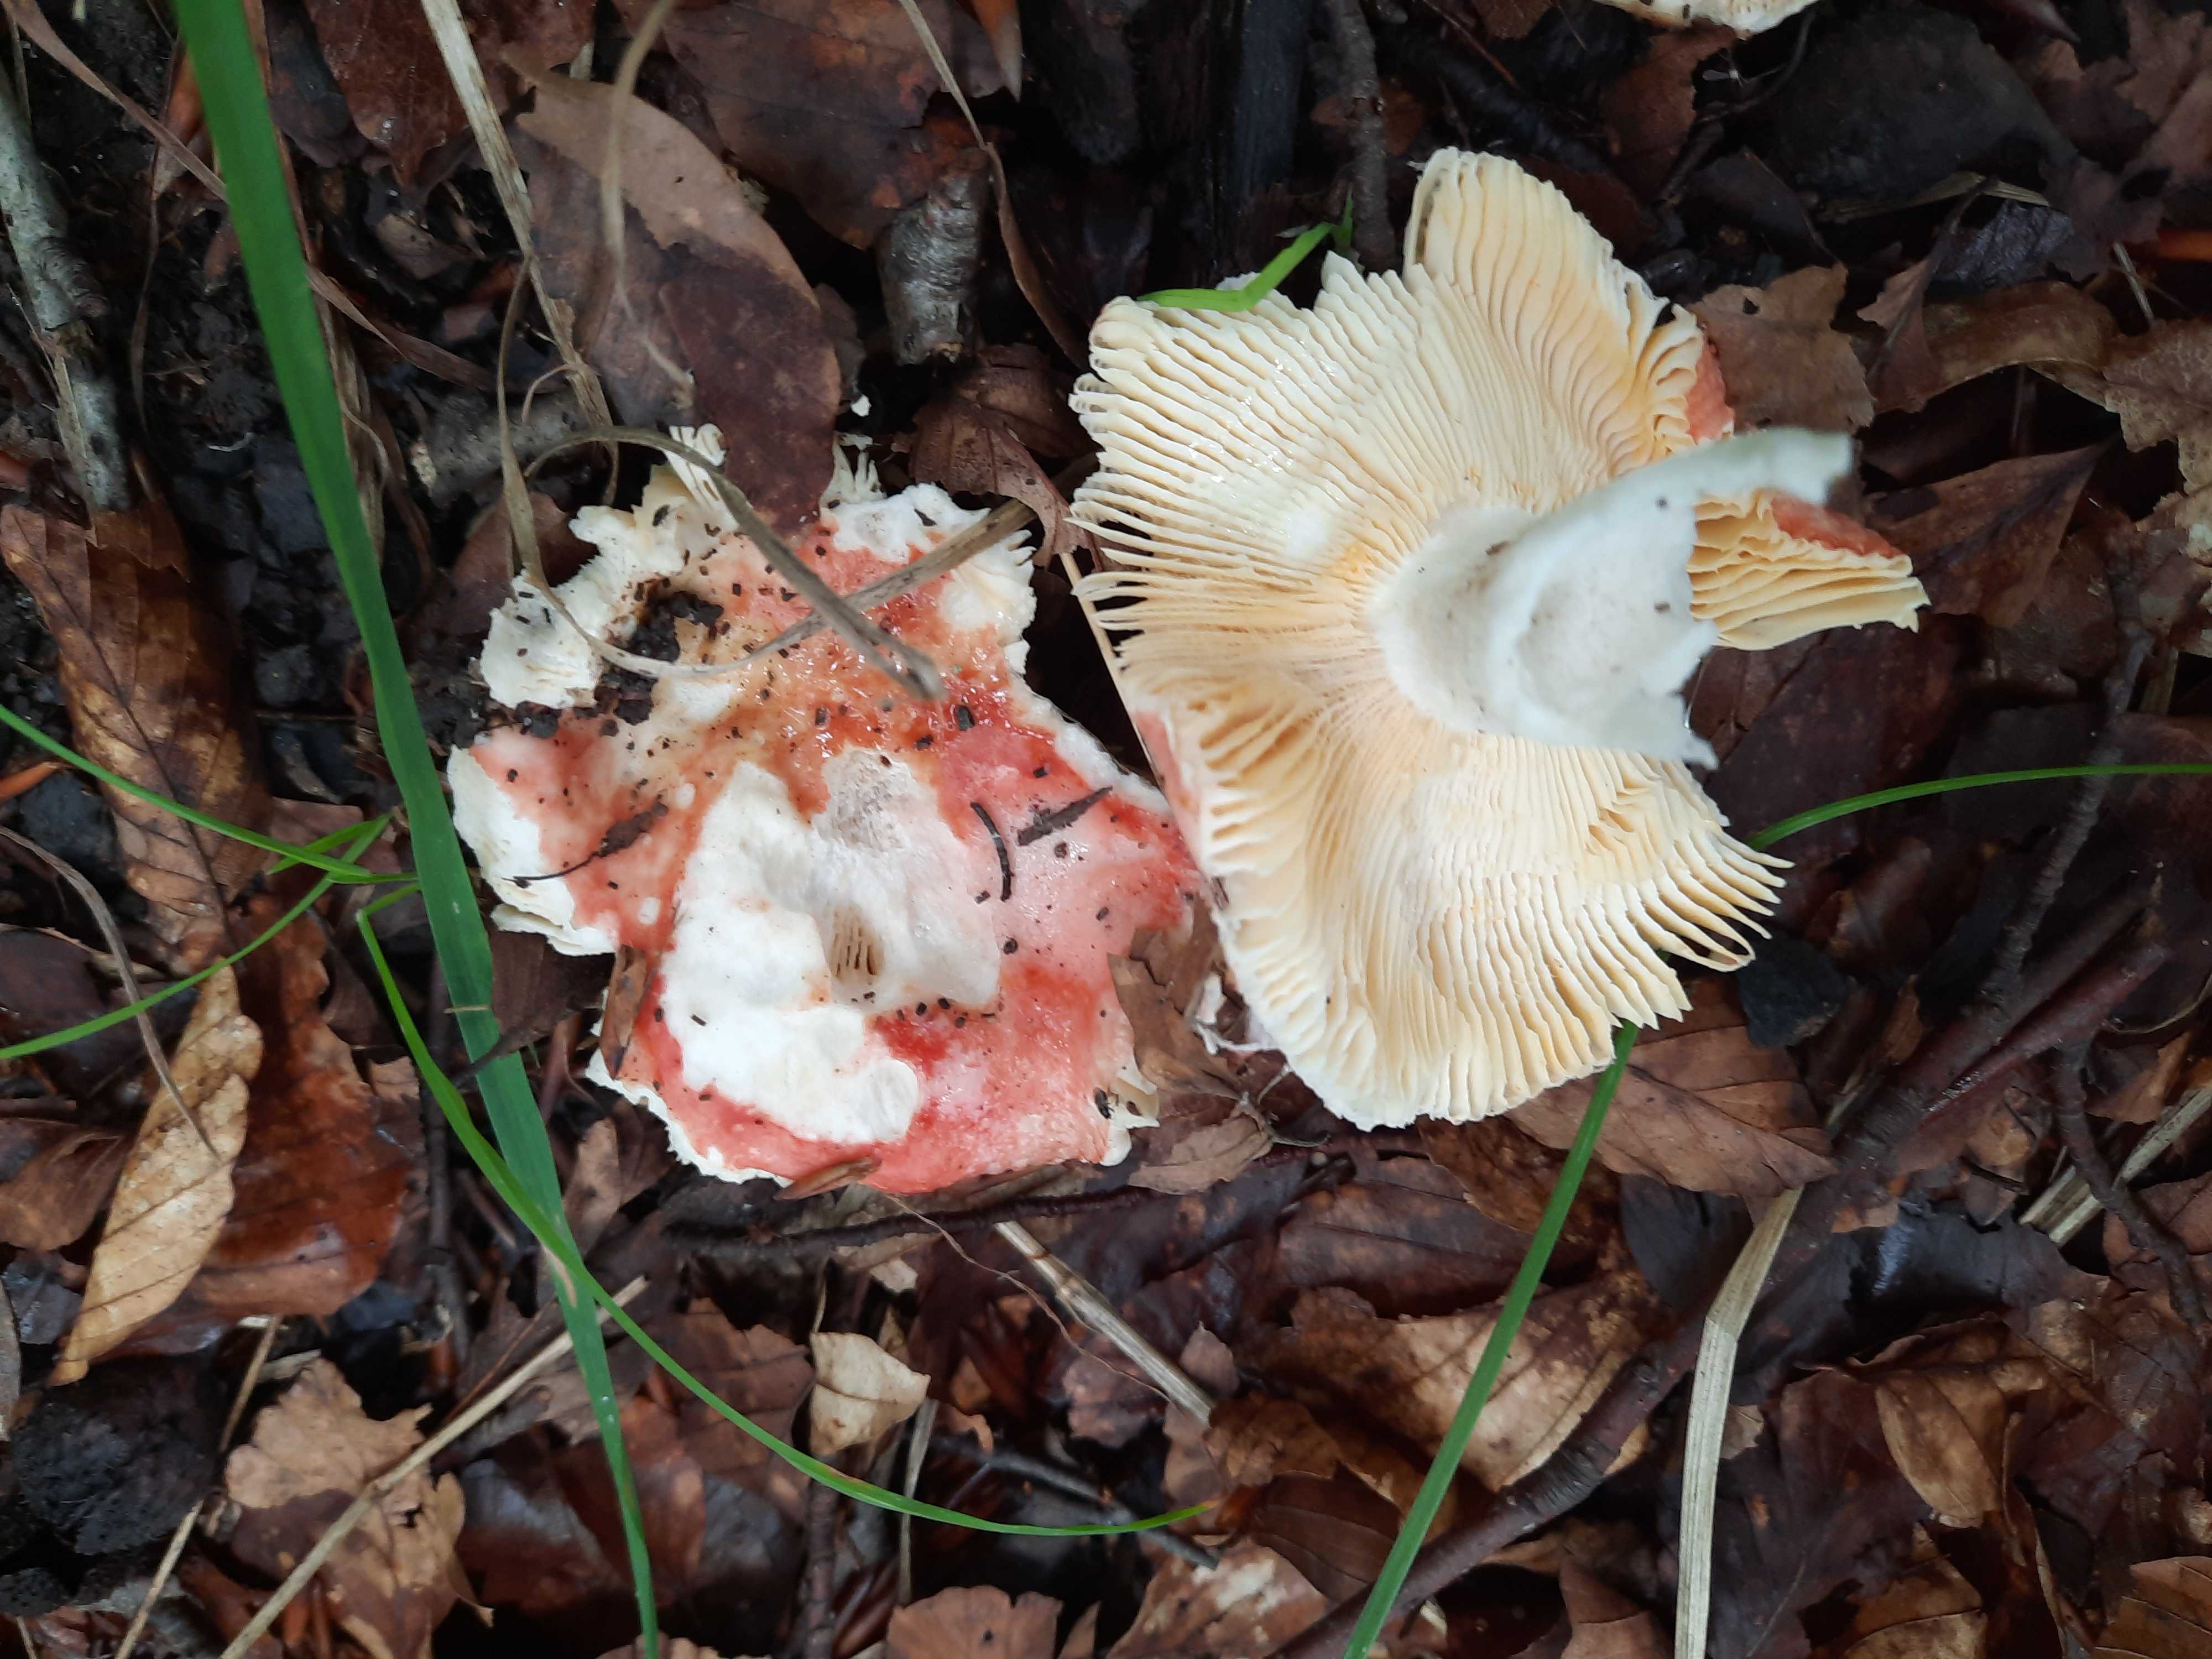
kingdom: Fungi
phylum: Basidiomycota
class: Agaricomycetes
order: Russulales
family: Russulaceae
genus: Russula
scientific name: Russula
